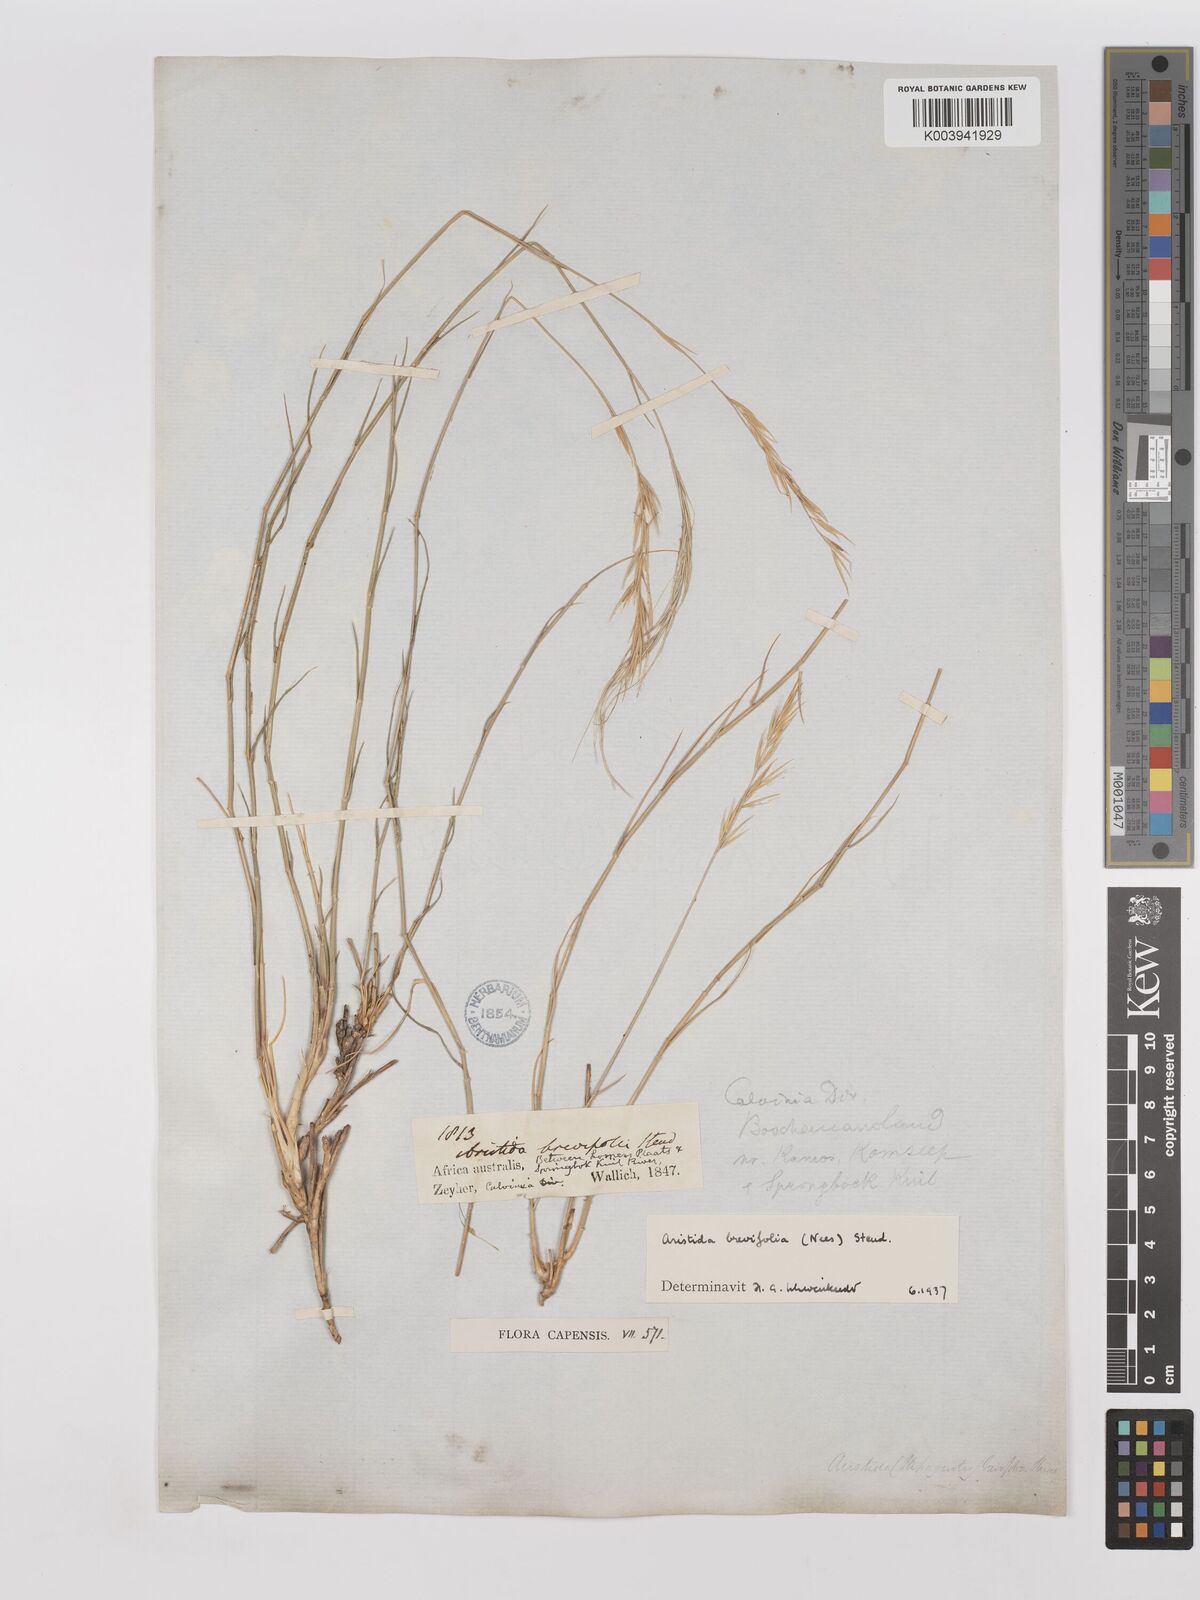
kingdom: Plantae
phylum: Tracheophyta
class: Liliopsida
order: Poales
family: Poaceae
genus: Stipagrostis
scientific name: Stipagrostis brevifolia
